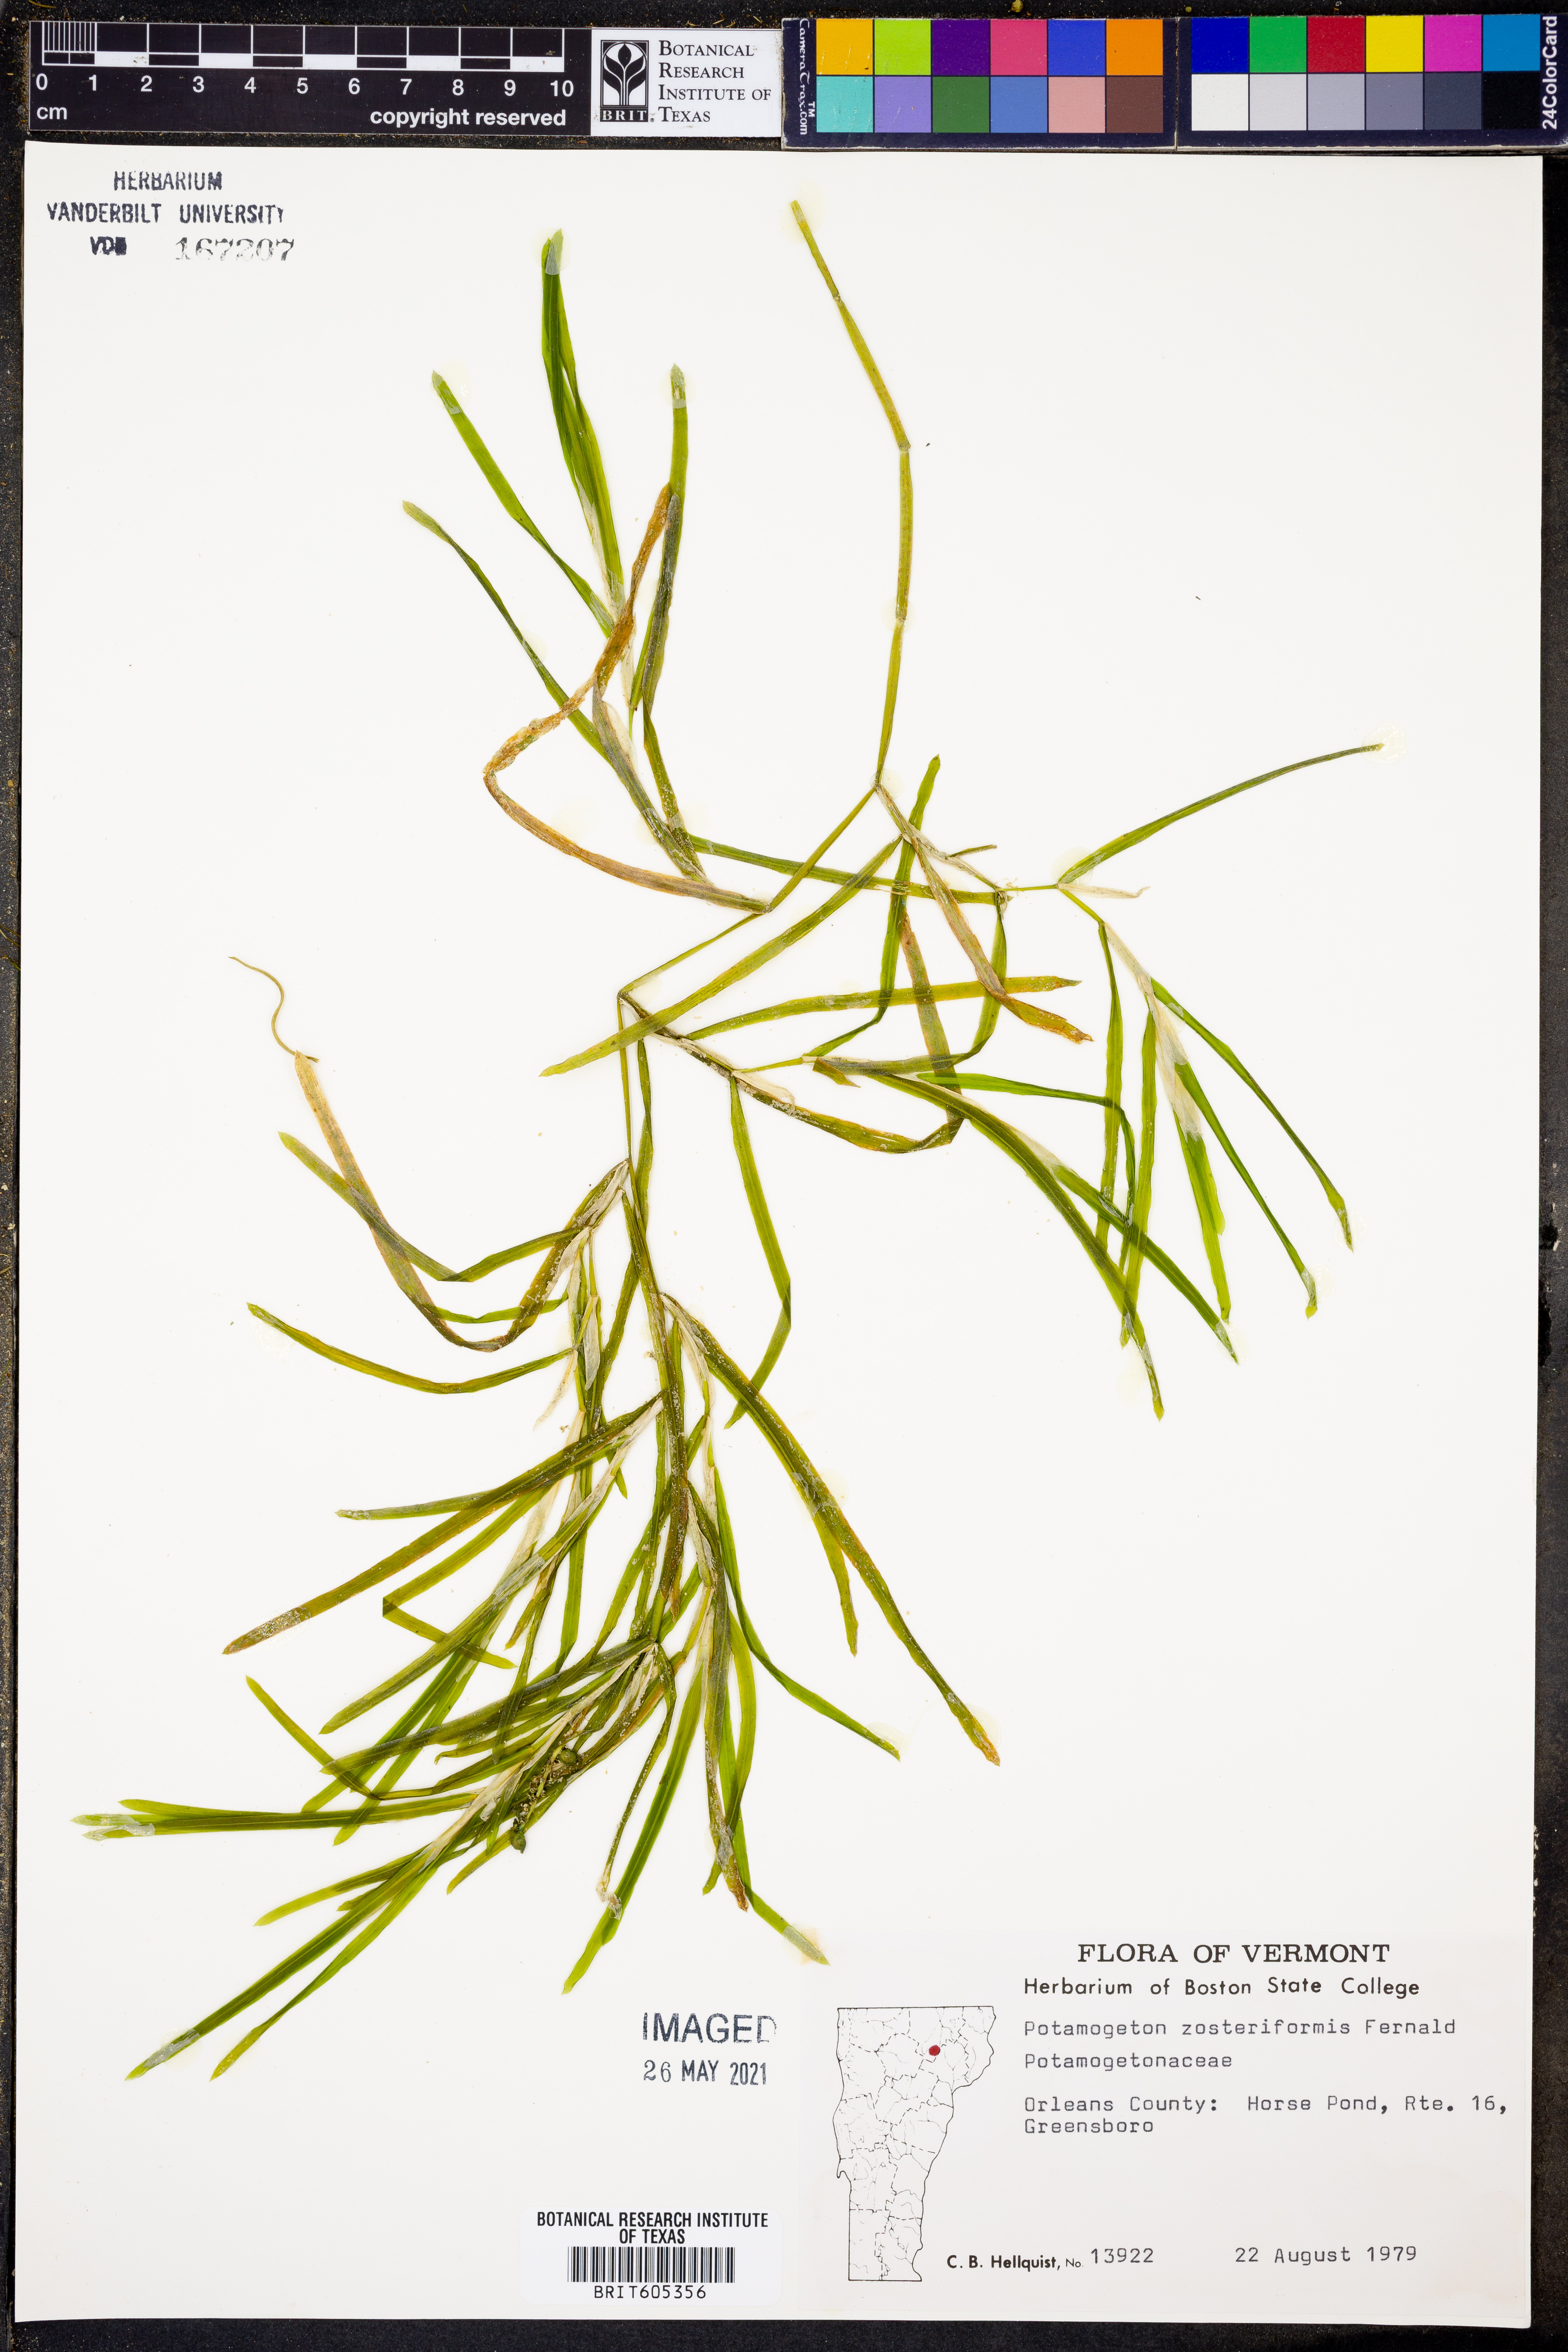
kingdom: Plantae
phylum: Tracheophyta
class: Liliopsida
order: Alismatales
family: Potamogetonaceae
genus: Potamogeton
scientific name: Potamogeton zosteriformis
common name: Eelgrass pondweed
